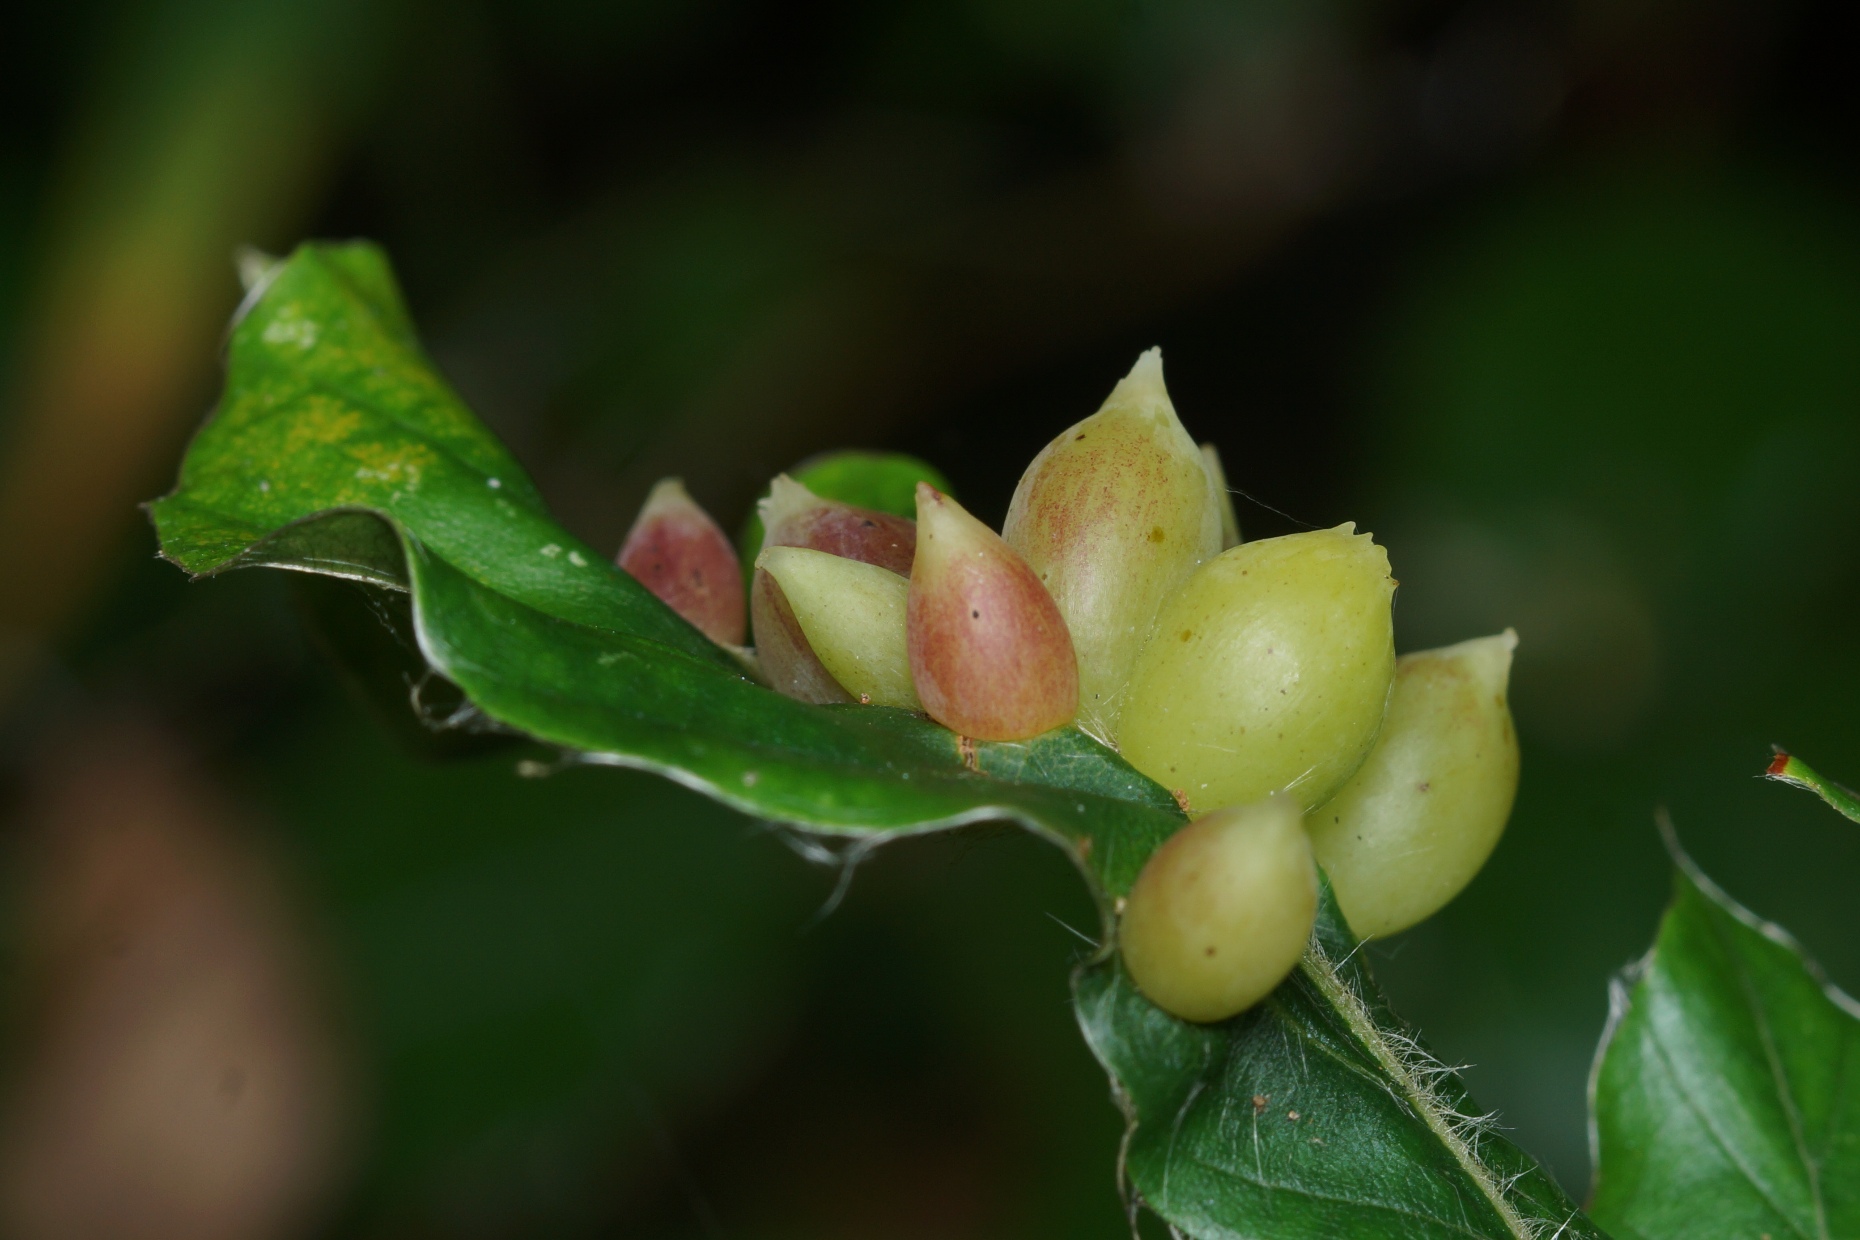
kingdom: Animalia
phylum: Arthropoda
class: Insecta
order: Diptera
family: Cecidomyiidae
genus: Mikiola
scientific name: Mikiola fagi
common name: Bøgegalmyg
